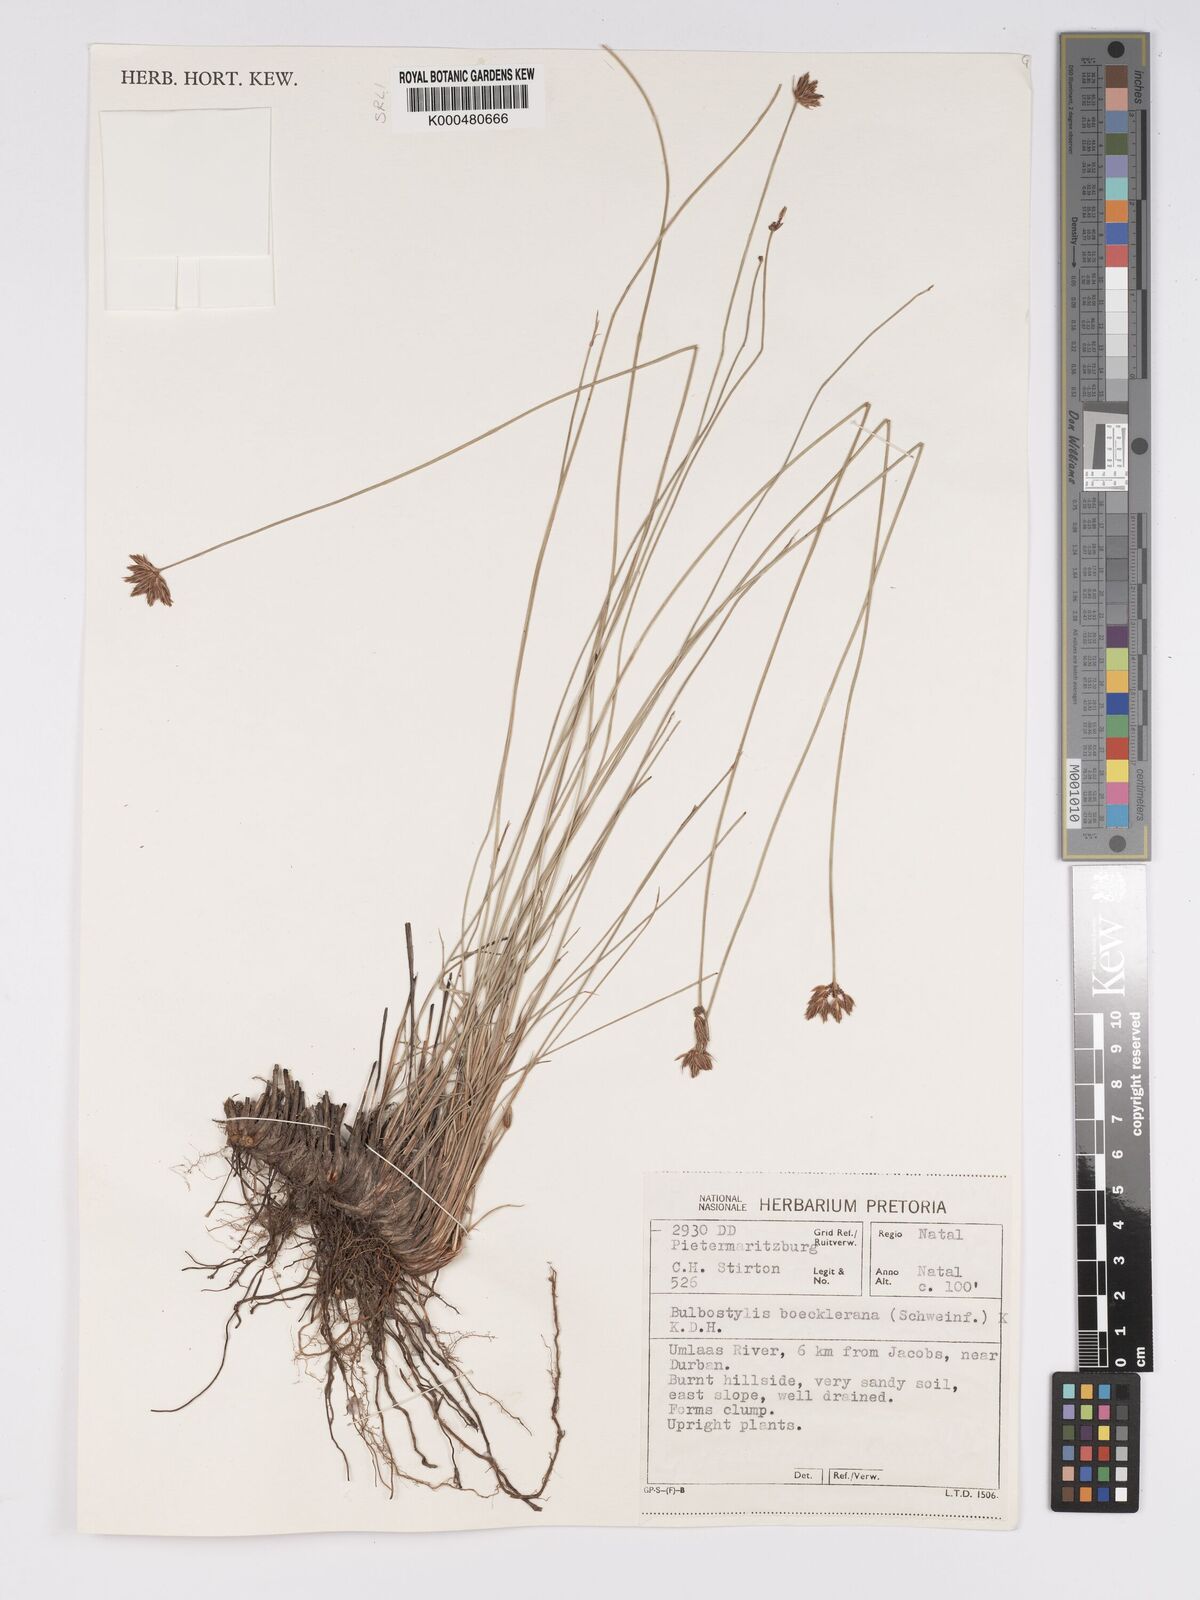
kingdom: Plantae
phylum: Tracheophyta
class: Liliopsida
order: Poales
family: Cyperaceae
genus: Bulbostylis
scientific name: Bulbostylis boeckeleriana
